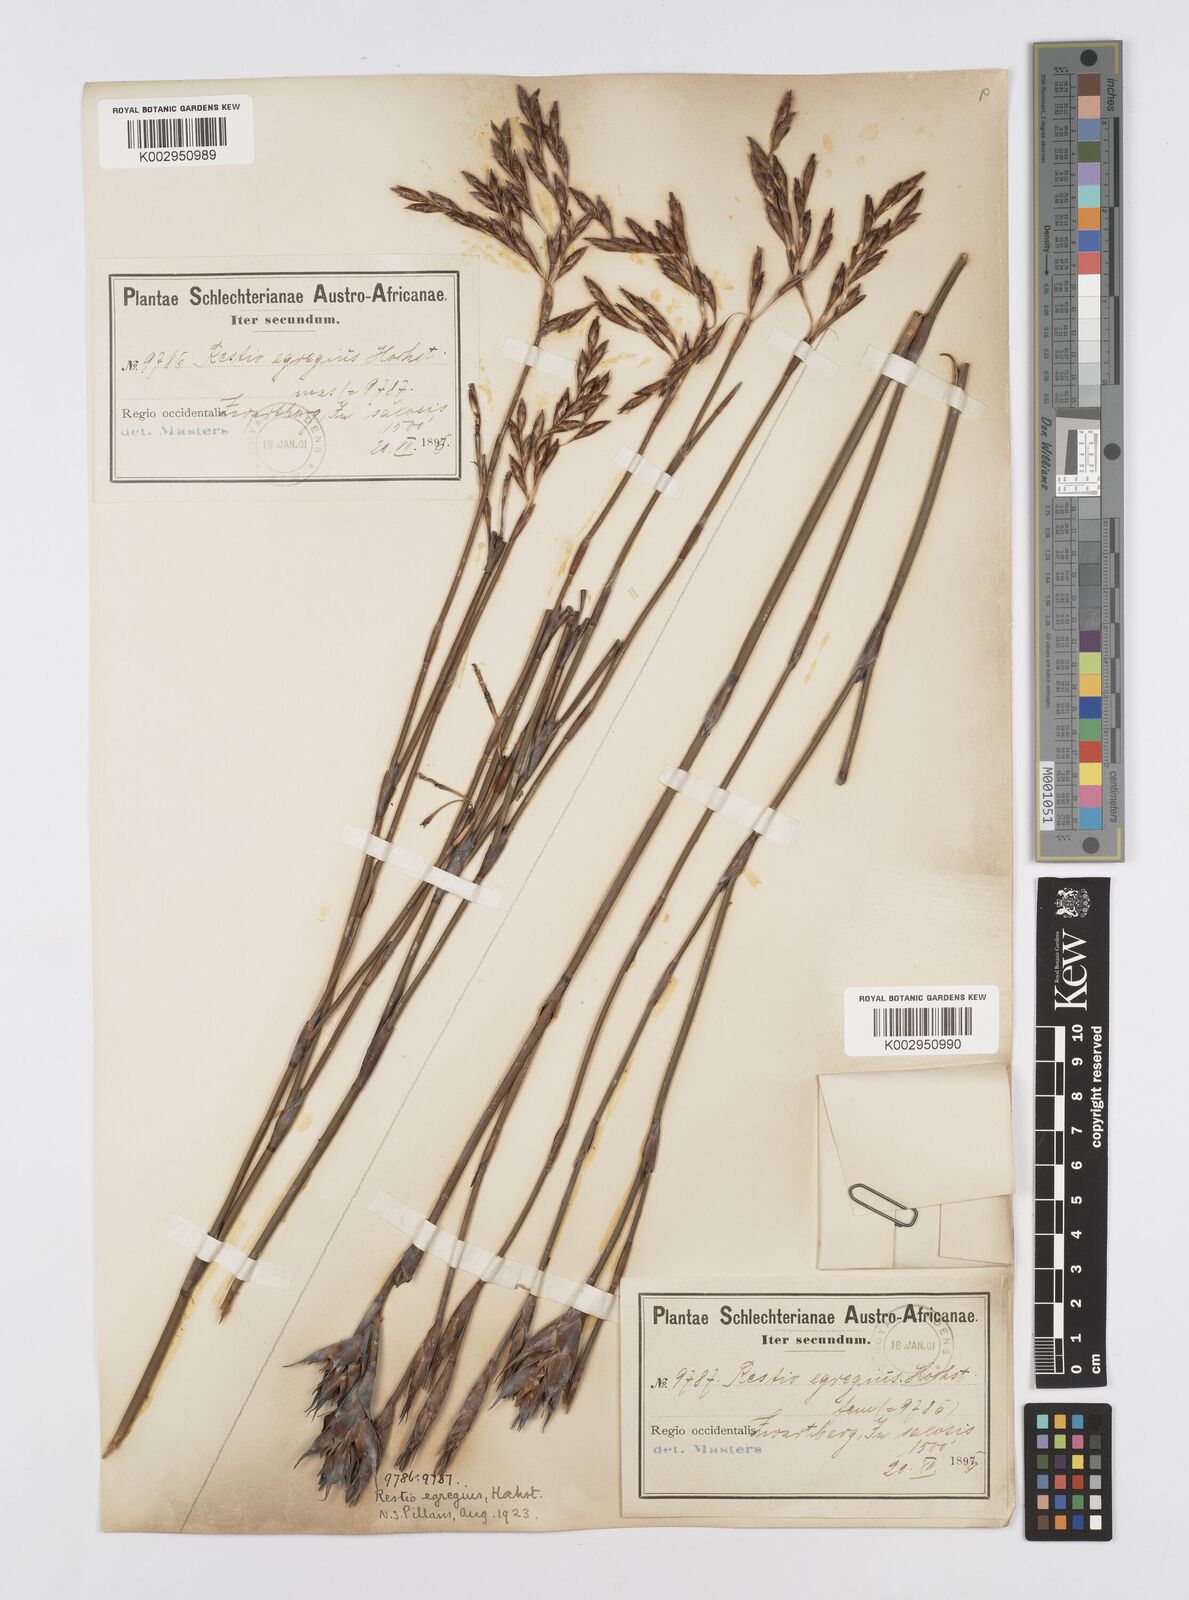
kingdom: Plantae
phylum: Tracheophyta
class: Liliopsida
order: Poales
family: Restionaceae
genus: Restio
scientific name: Restio egregius
